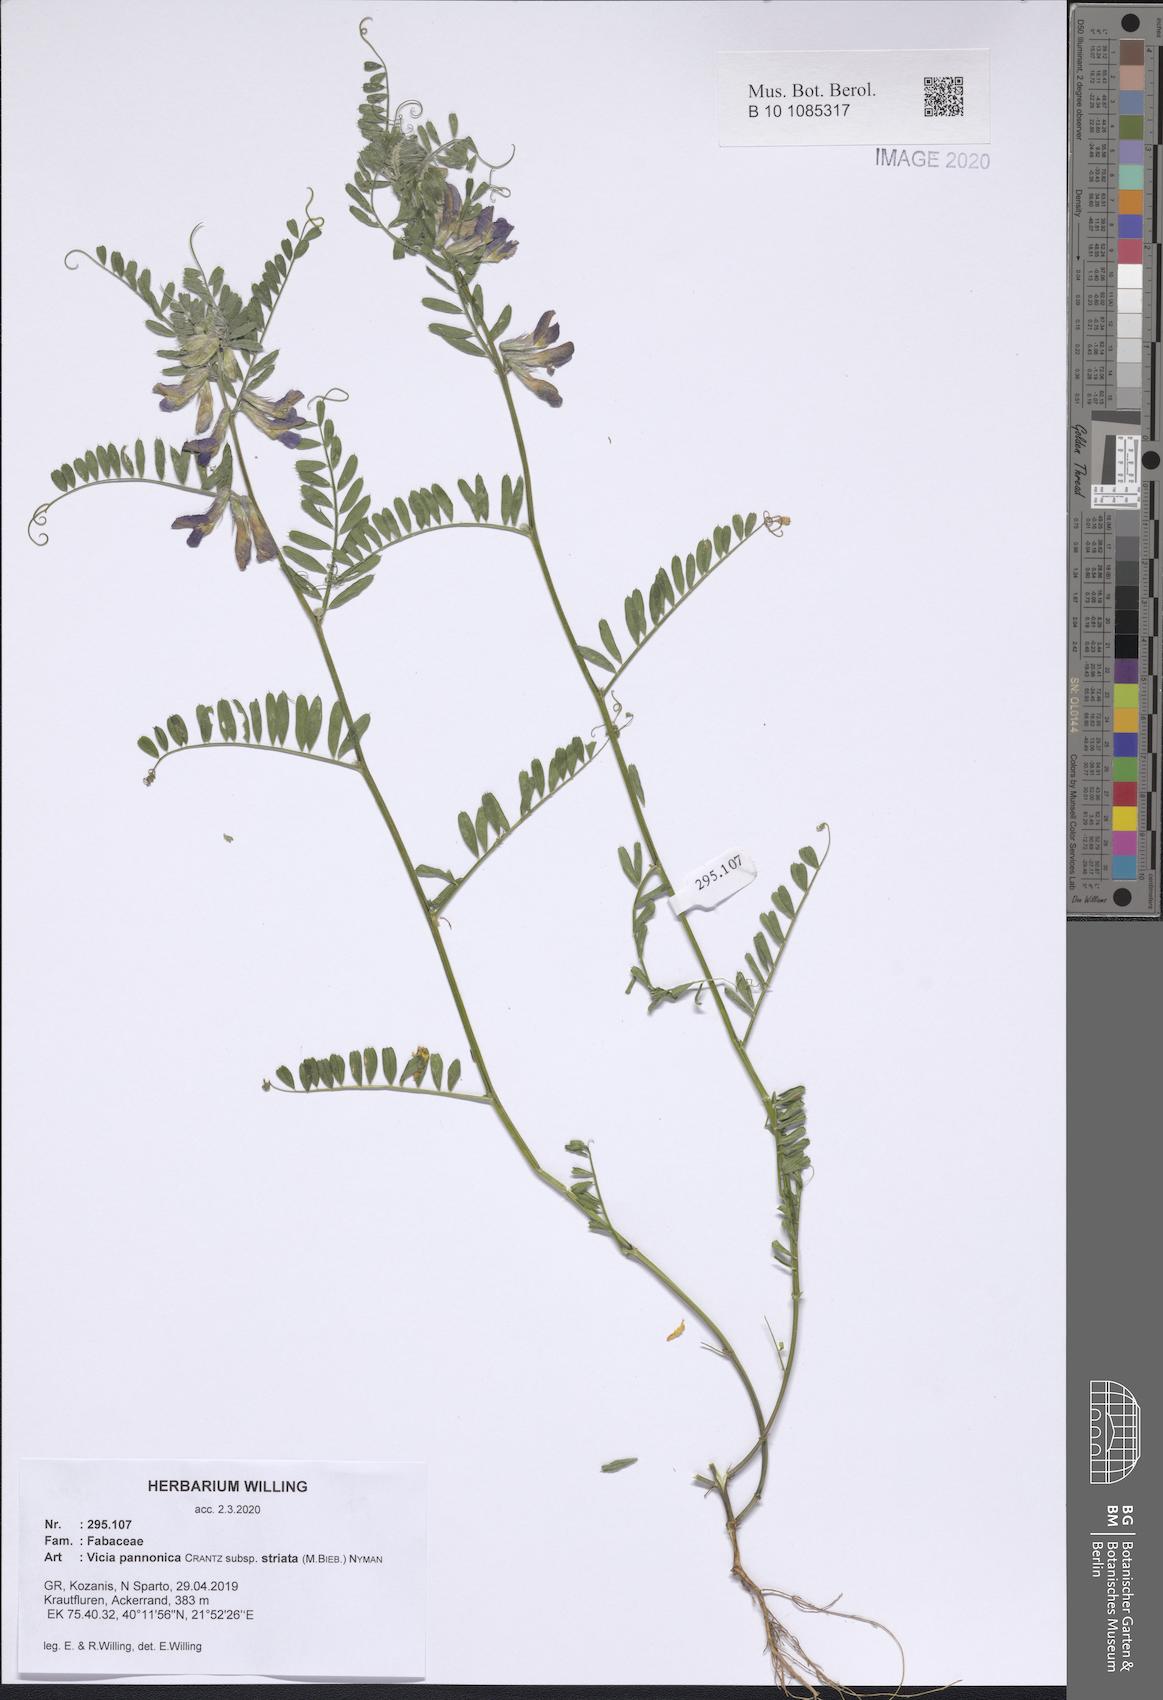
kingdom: Plantae
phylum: Tracheophyta
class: Magnoliopsida
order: Fabales
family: Fabaceae
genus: Vicia
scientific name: Vicia pannonica
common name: Hungarian vetch
